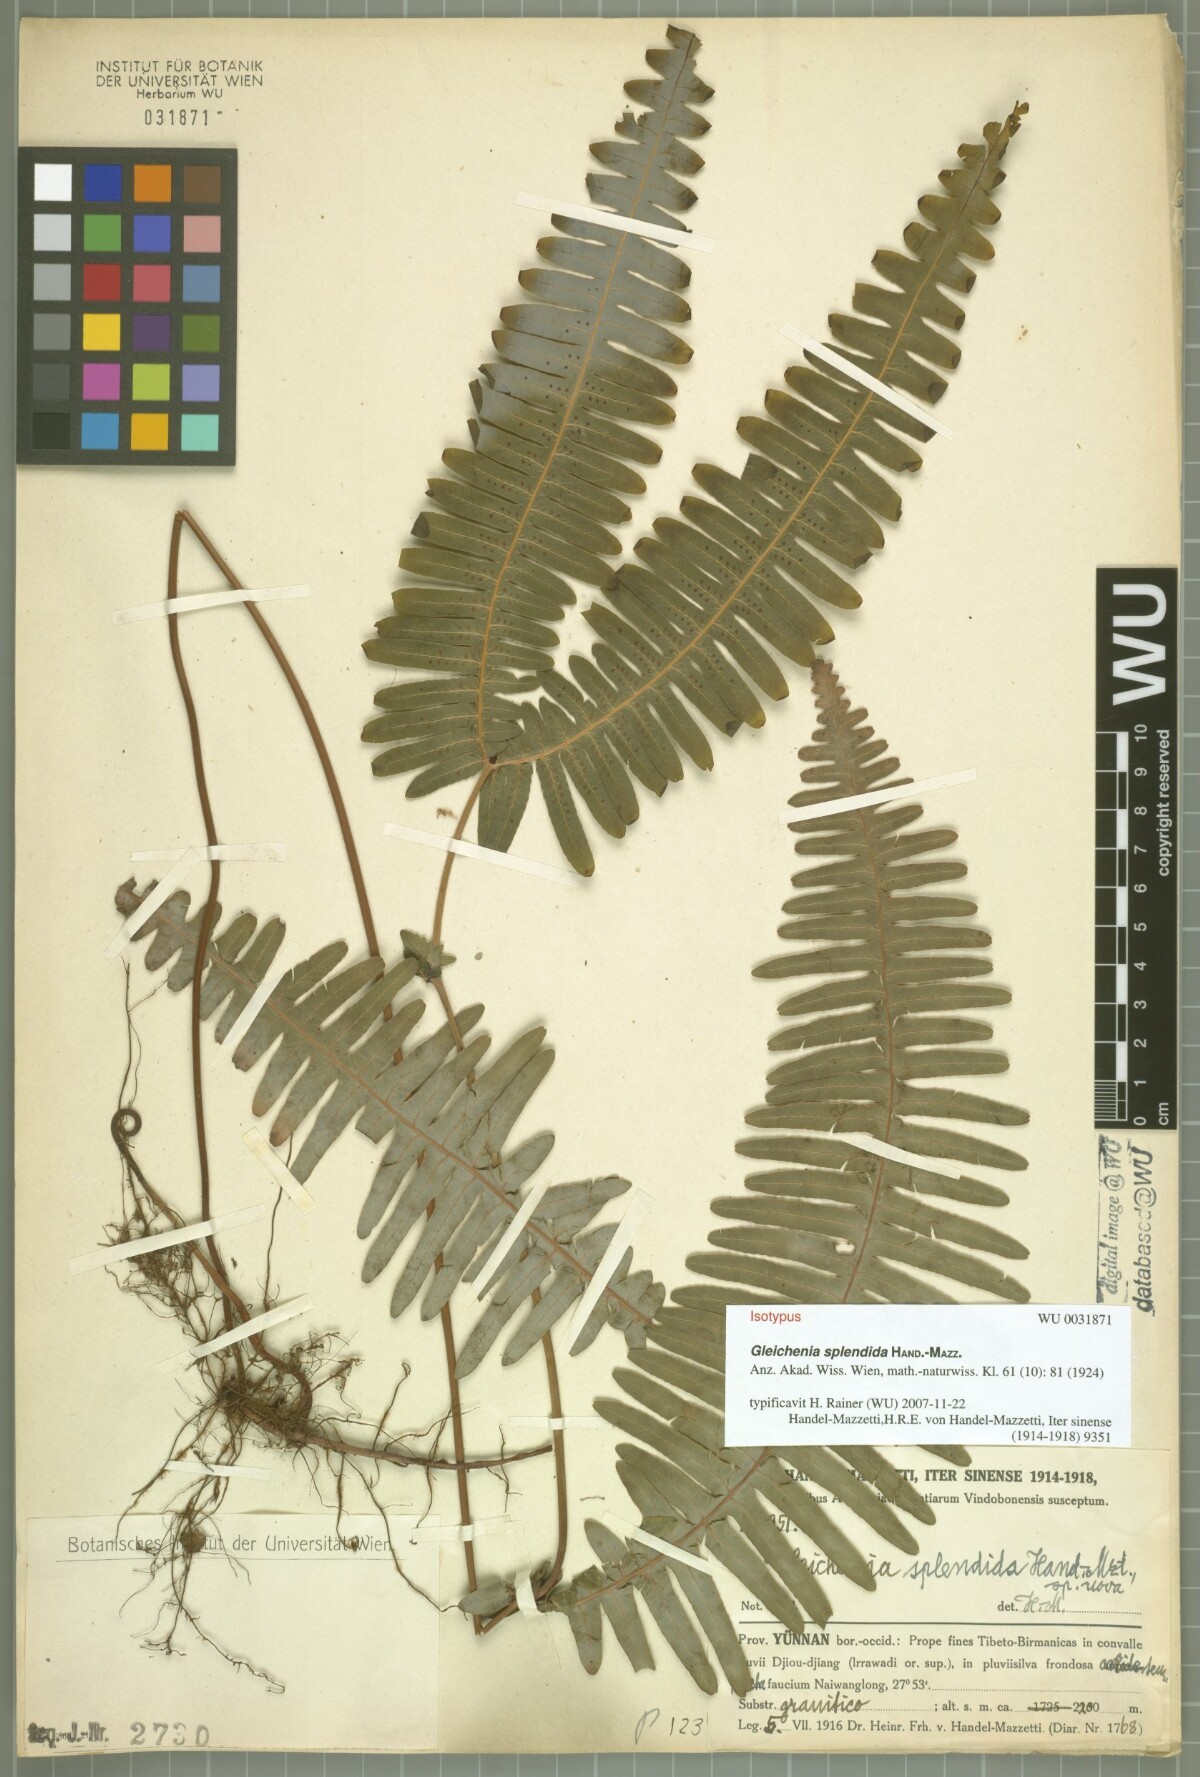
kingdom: Plantae
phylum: Tracheophyta
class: Polypodiopsida
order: Gleicheniales
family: Gleicheniaceae
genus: Dicranopteris
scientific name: Dicranopteris splendida
